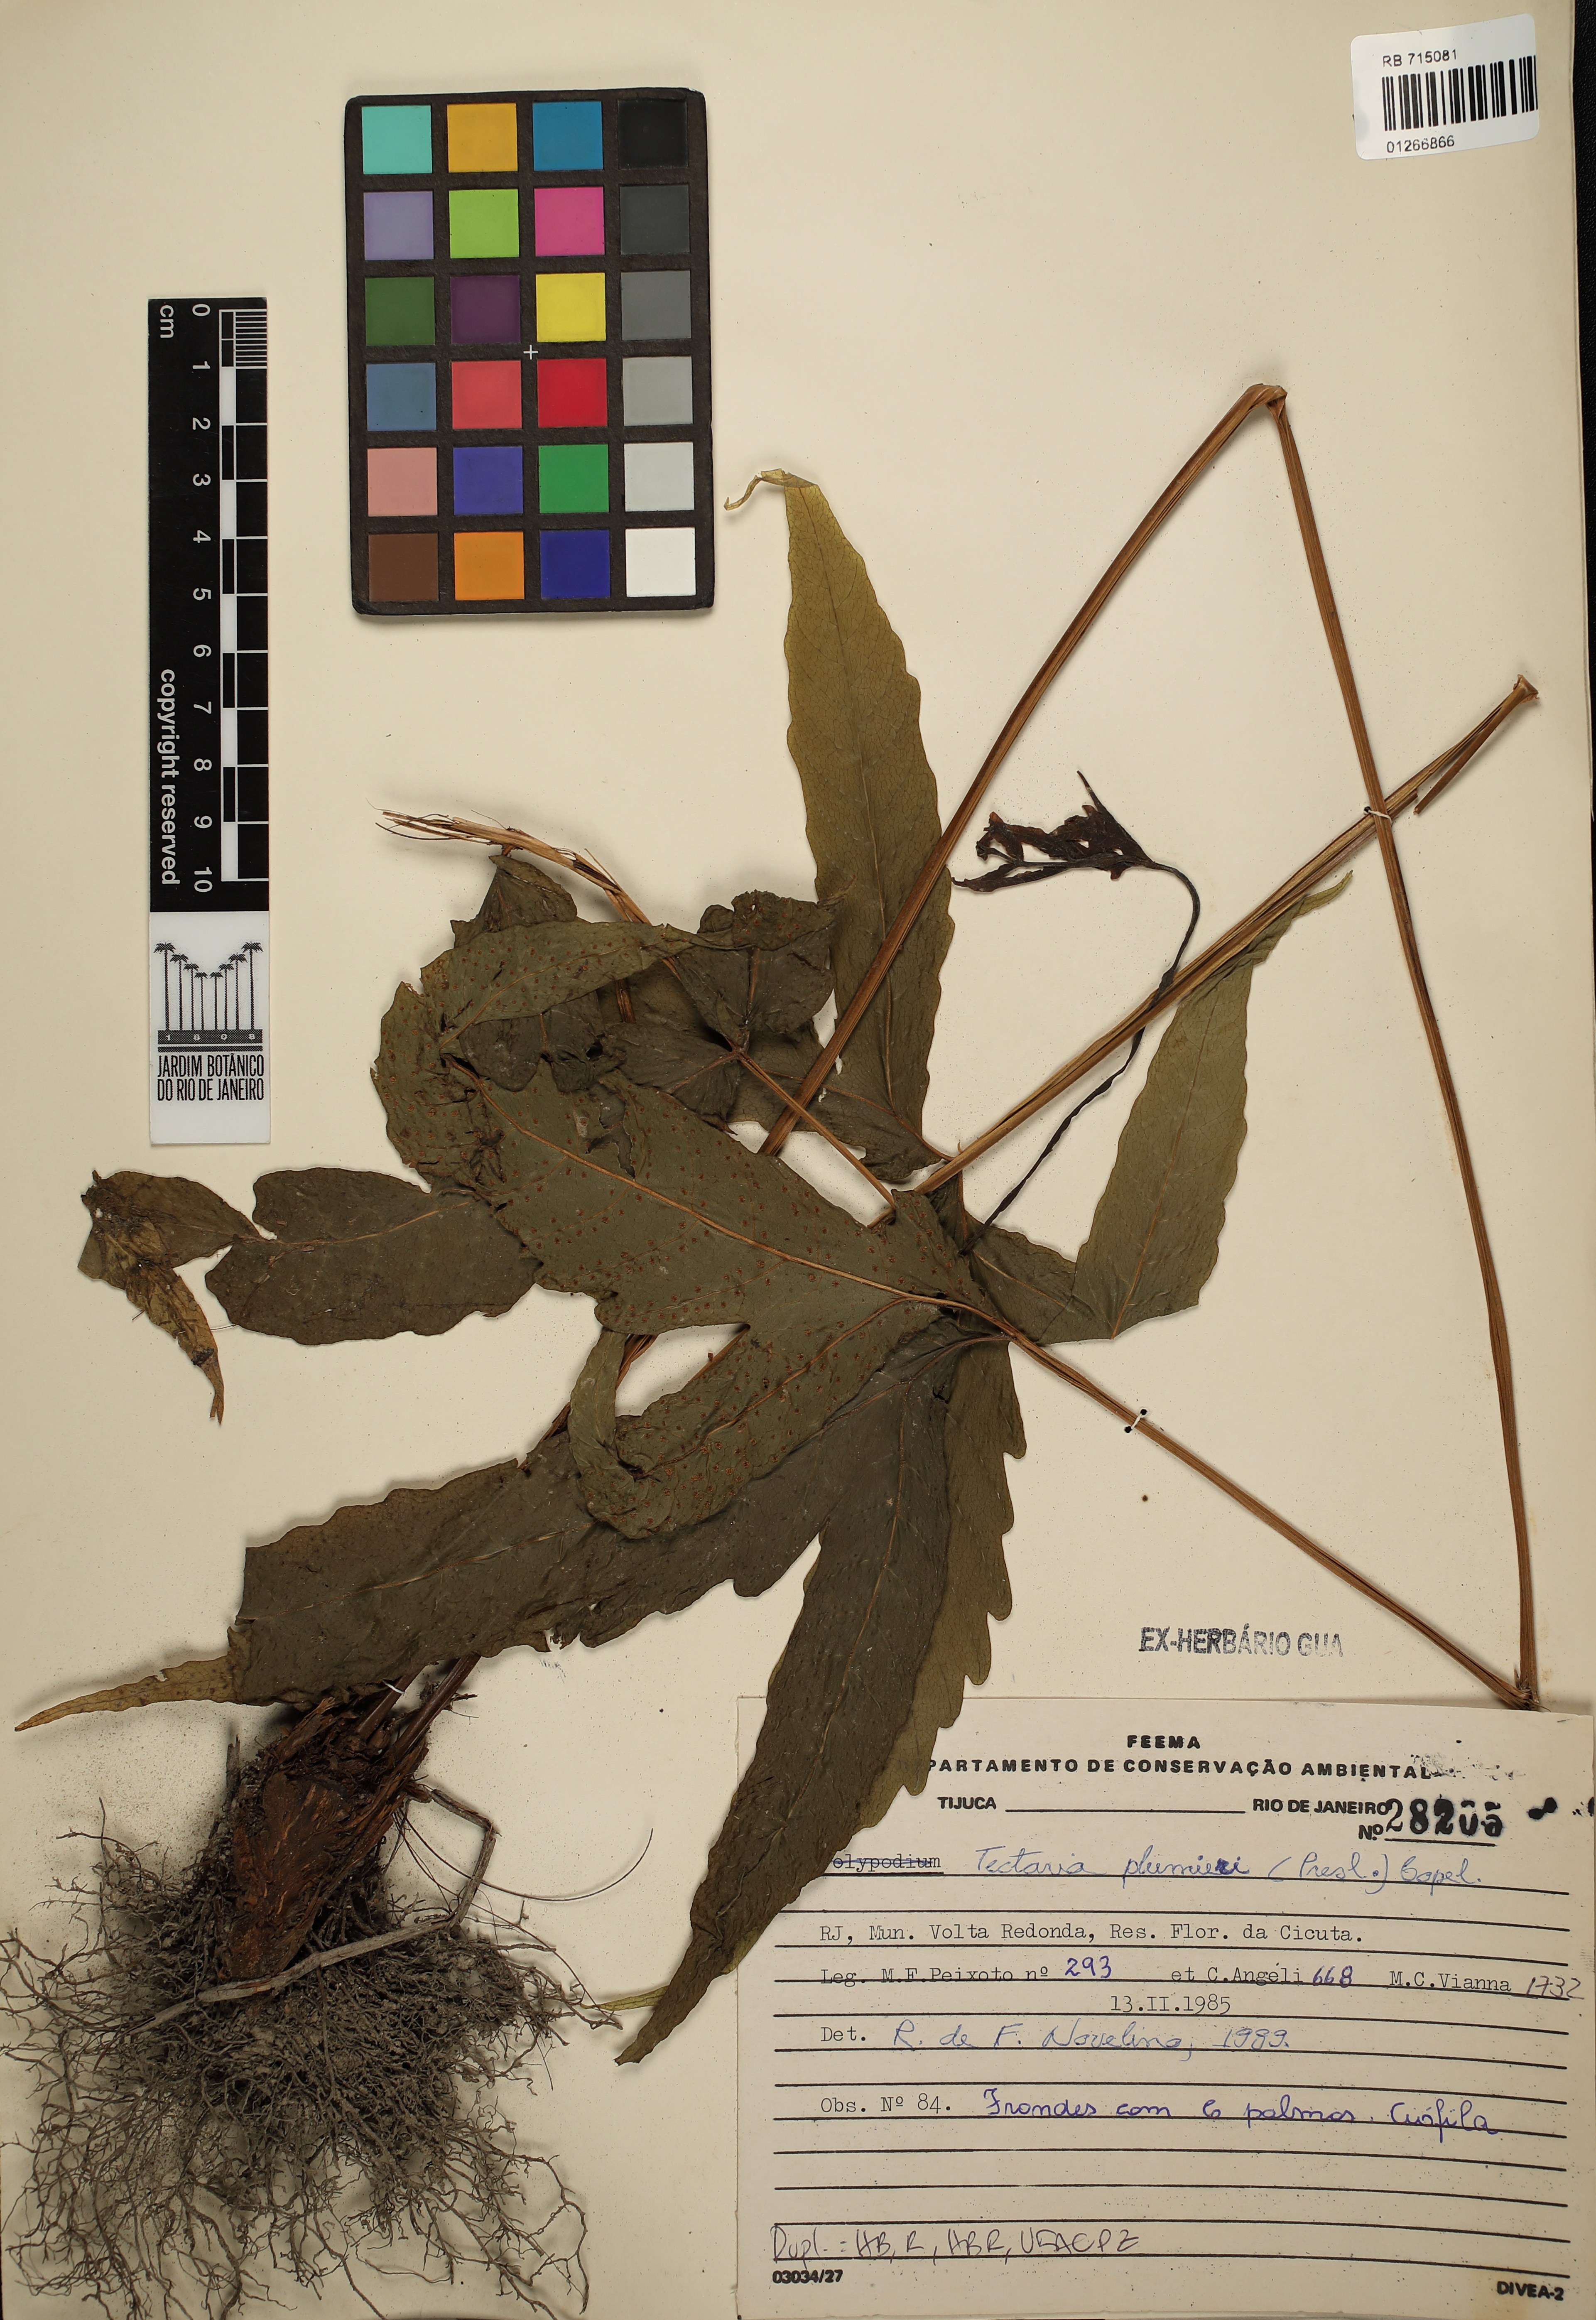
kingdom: Plantae
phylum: Tracheophyta
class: Polypodiopsida
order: Polypodiales
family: Tectariaceae
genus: Tectaria
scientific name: Tectaria trifoliata
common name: Threeleaf halberd fern
